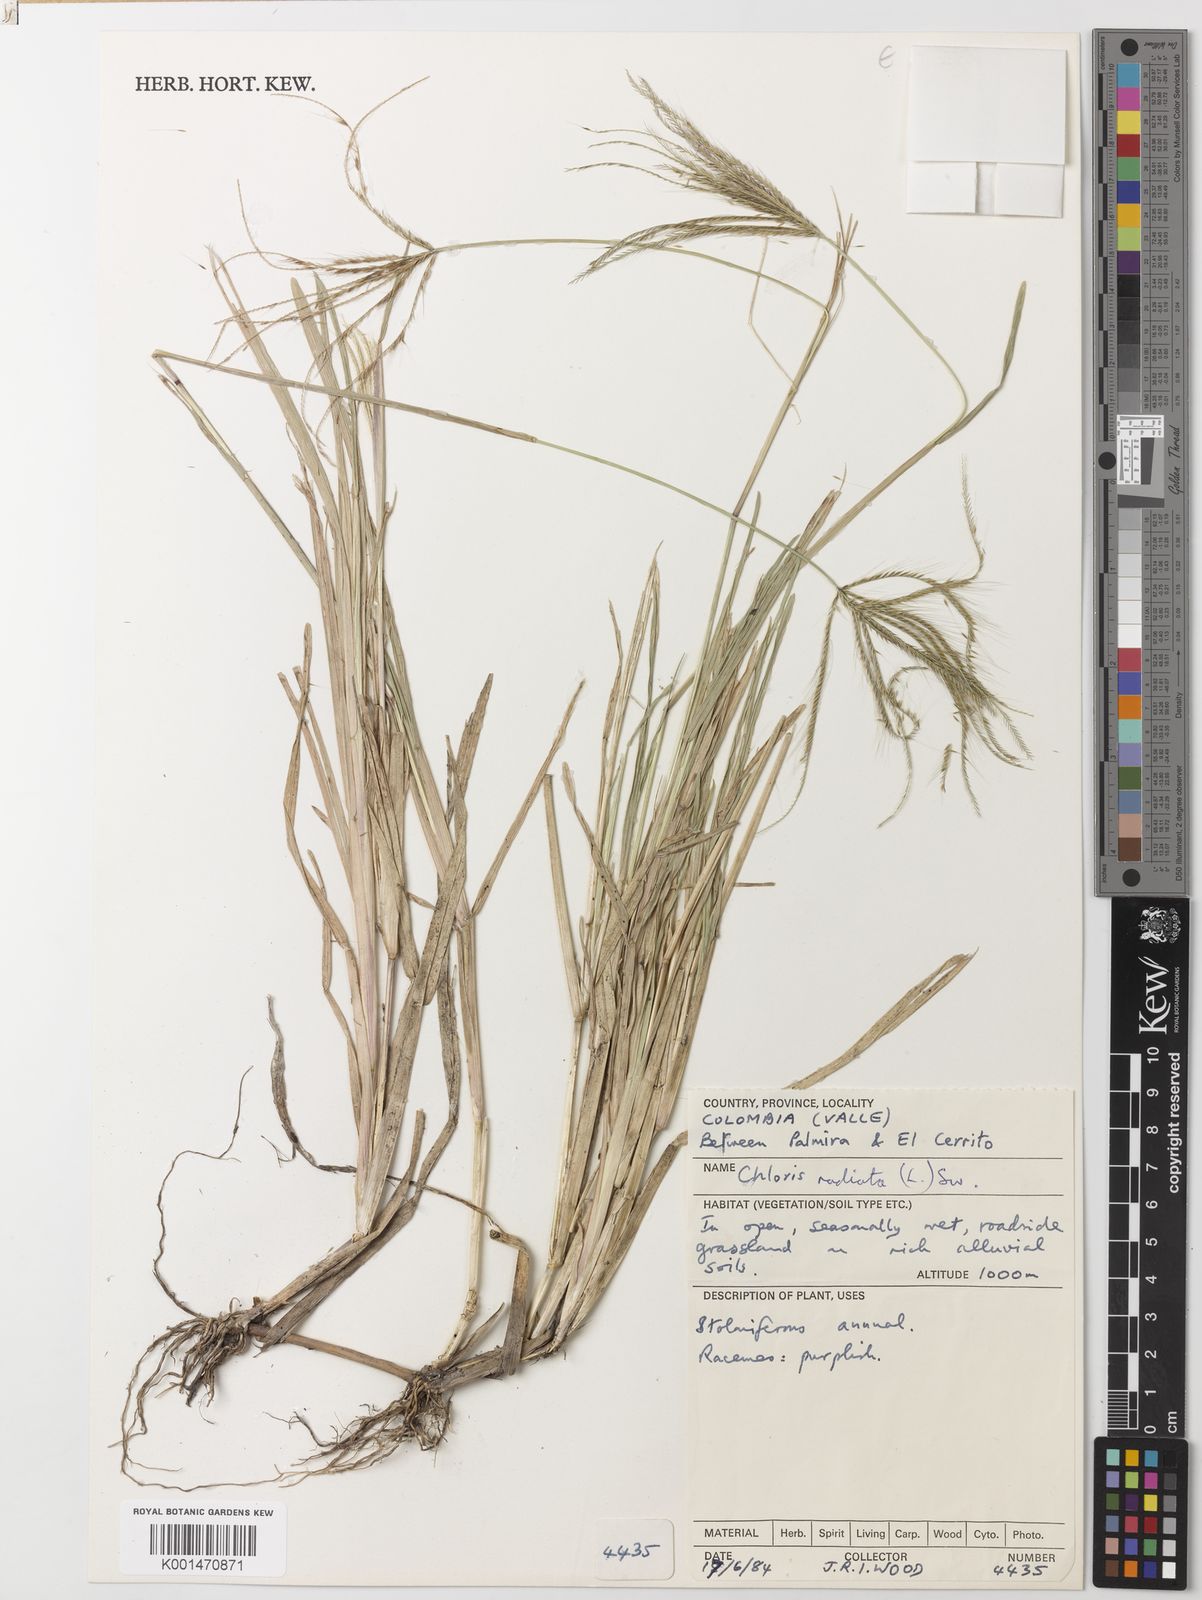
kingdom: Plantae
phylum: Tracheophyta
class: Liliopsida
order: Poales
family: Poaceae
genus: Chloris
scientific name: Chloris radiata
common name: Radiate fingergrass
